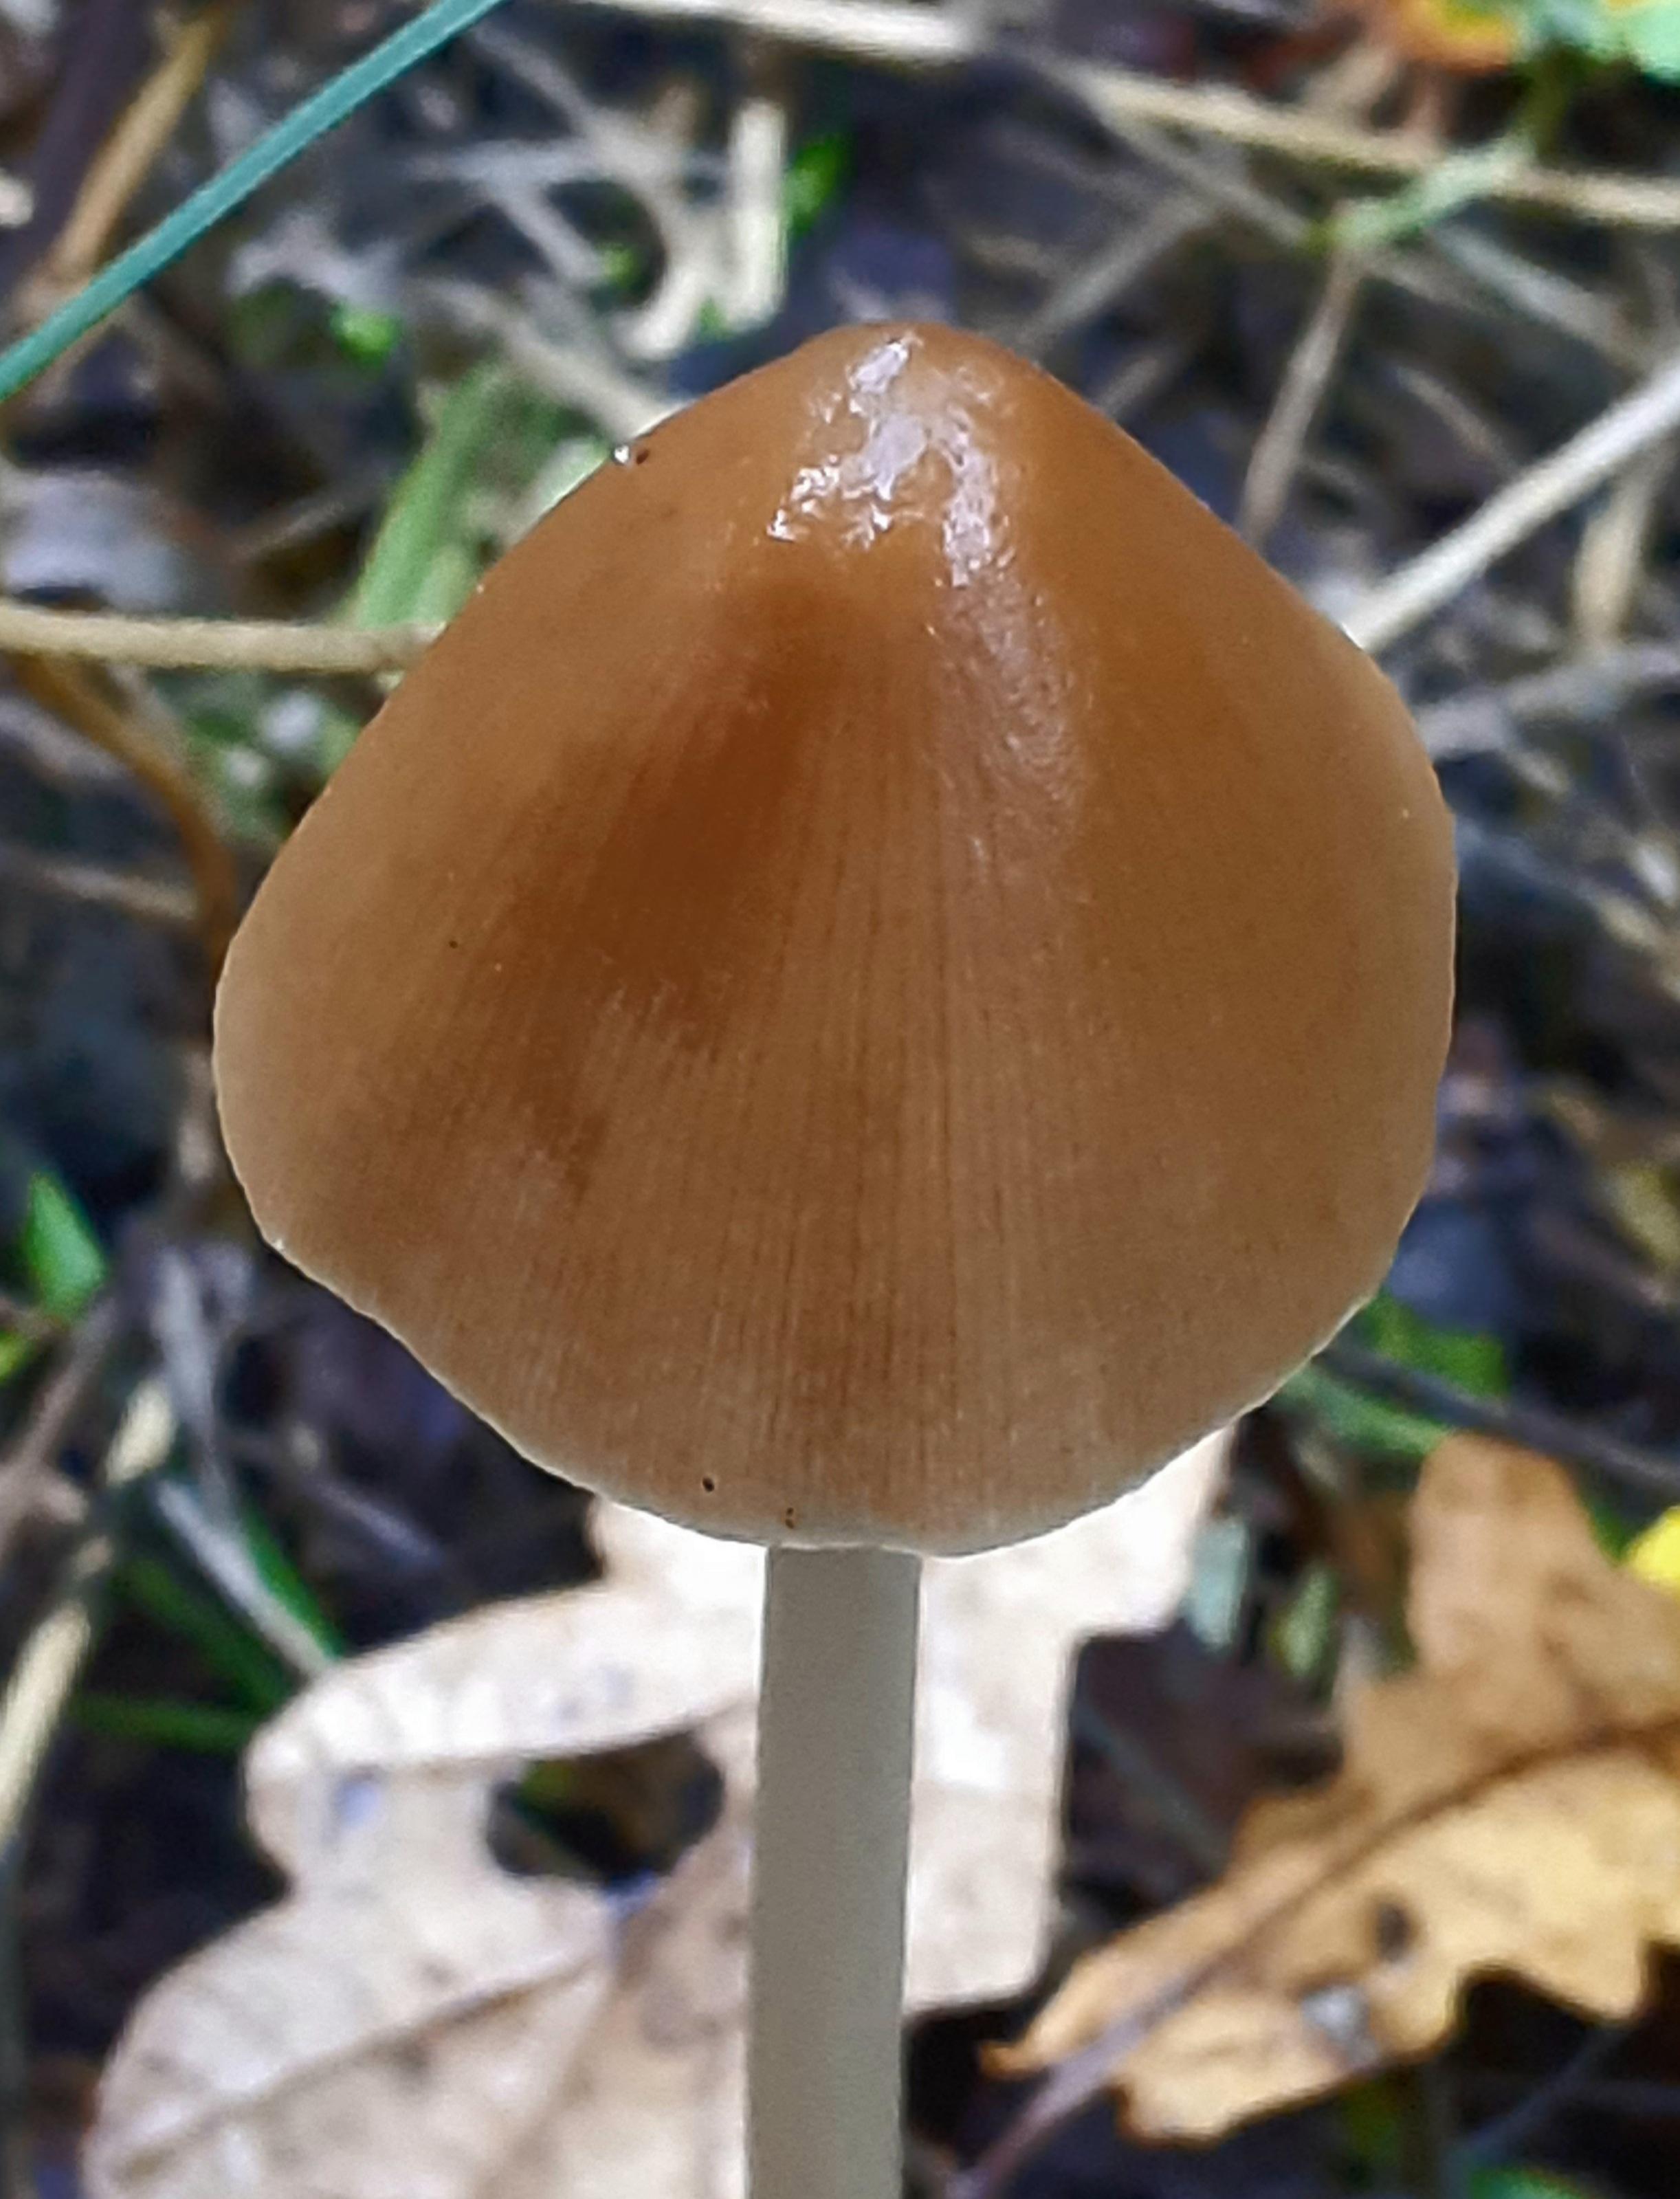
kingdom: Fungi
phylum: Basidiomycota
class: Agaricomycetes
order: Agaricales
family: Psathyrellaceae
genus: Parasola
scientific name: Parasola conopilea
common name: kegle-hjulhat
